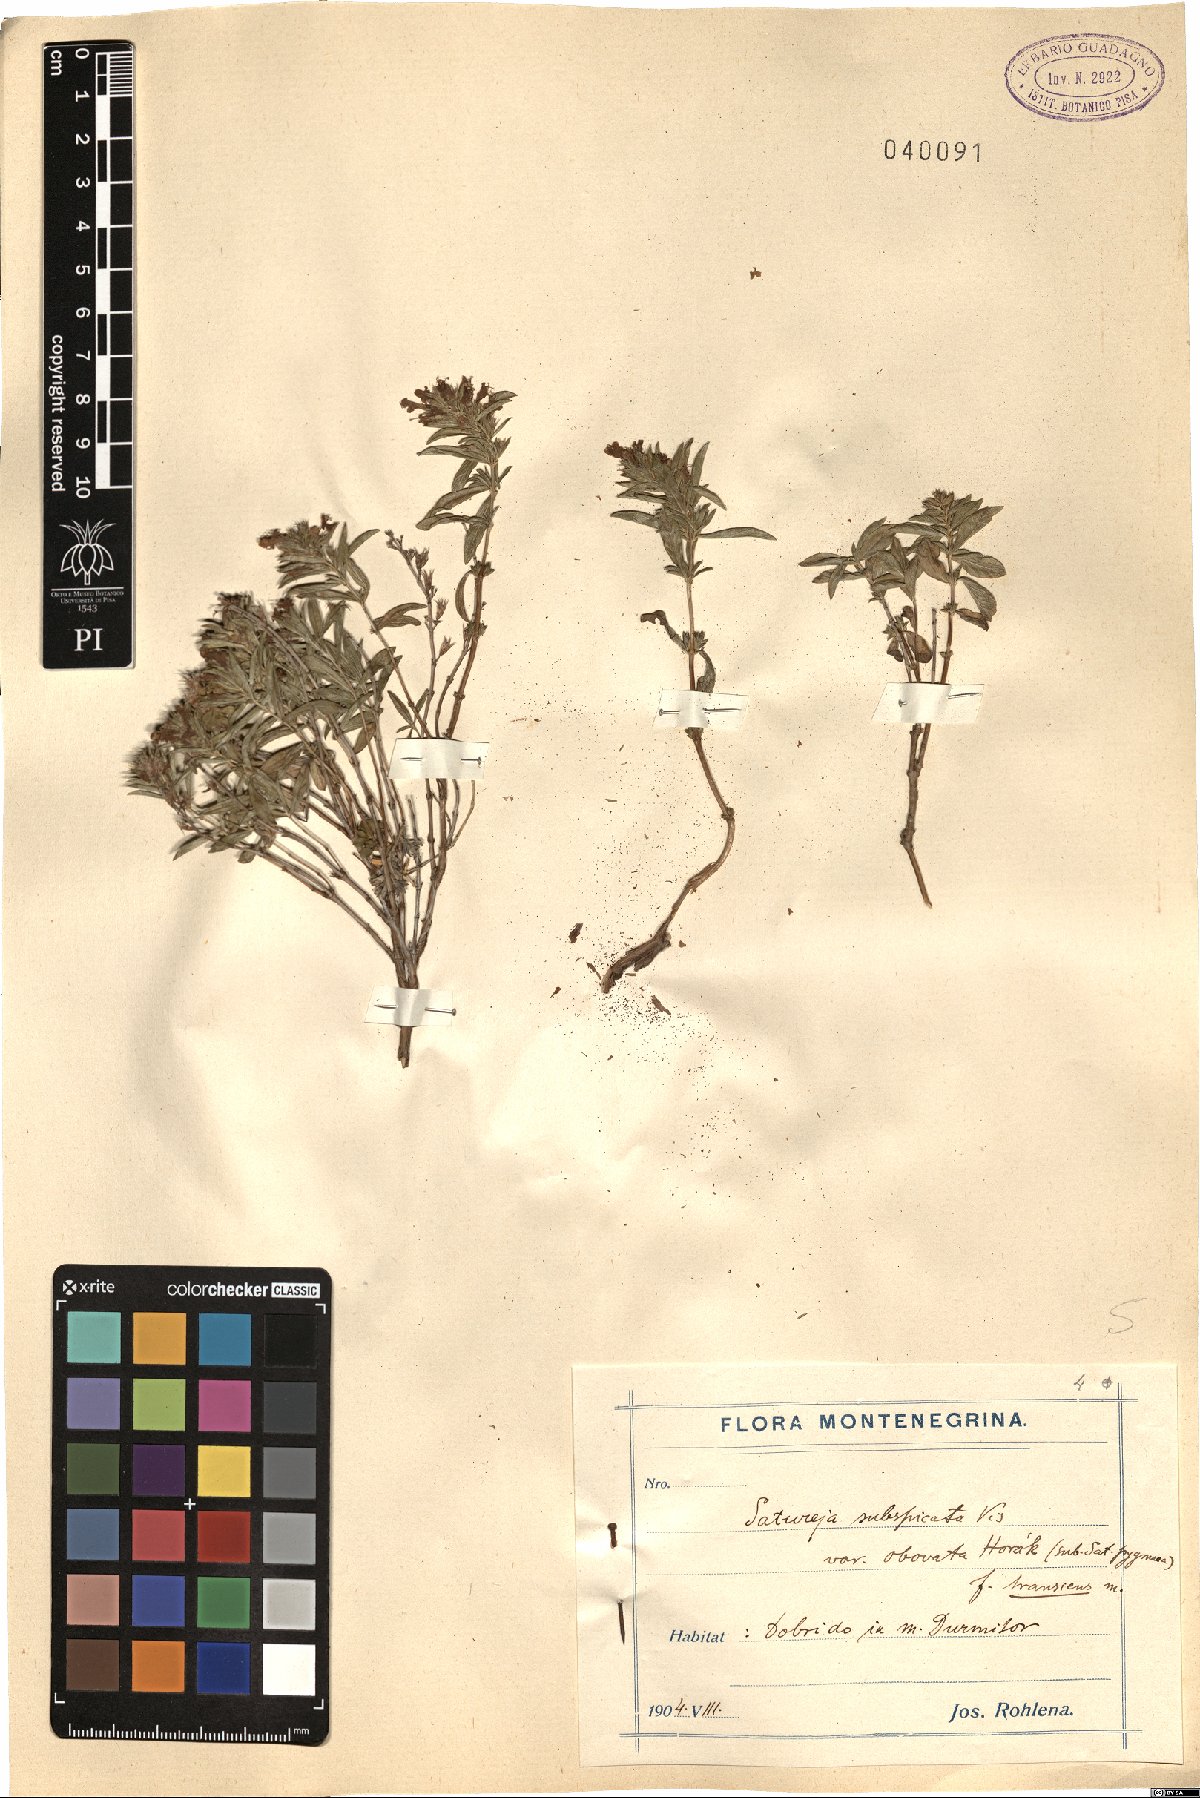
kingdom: Plantae
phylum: Tracheophyta
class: Magnoliopsida
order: Lamiales
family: Lamiaceae
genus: Satureja
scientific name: Satureja subspicata
